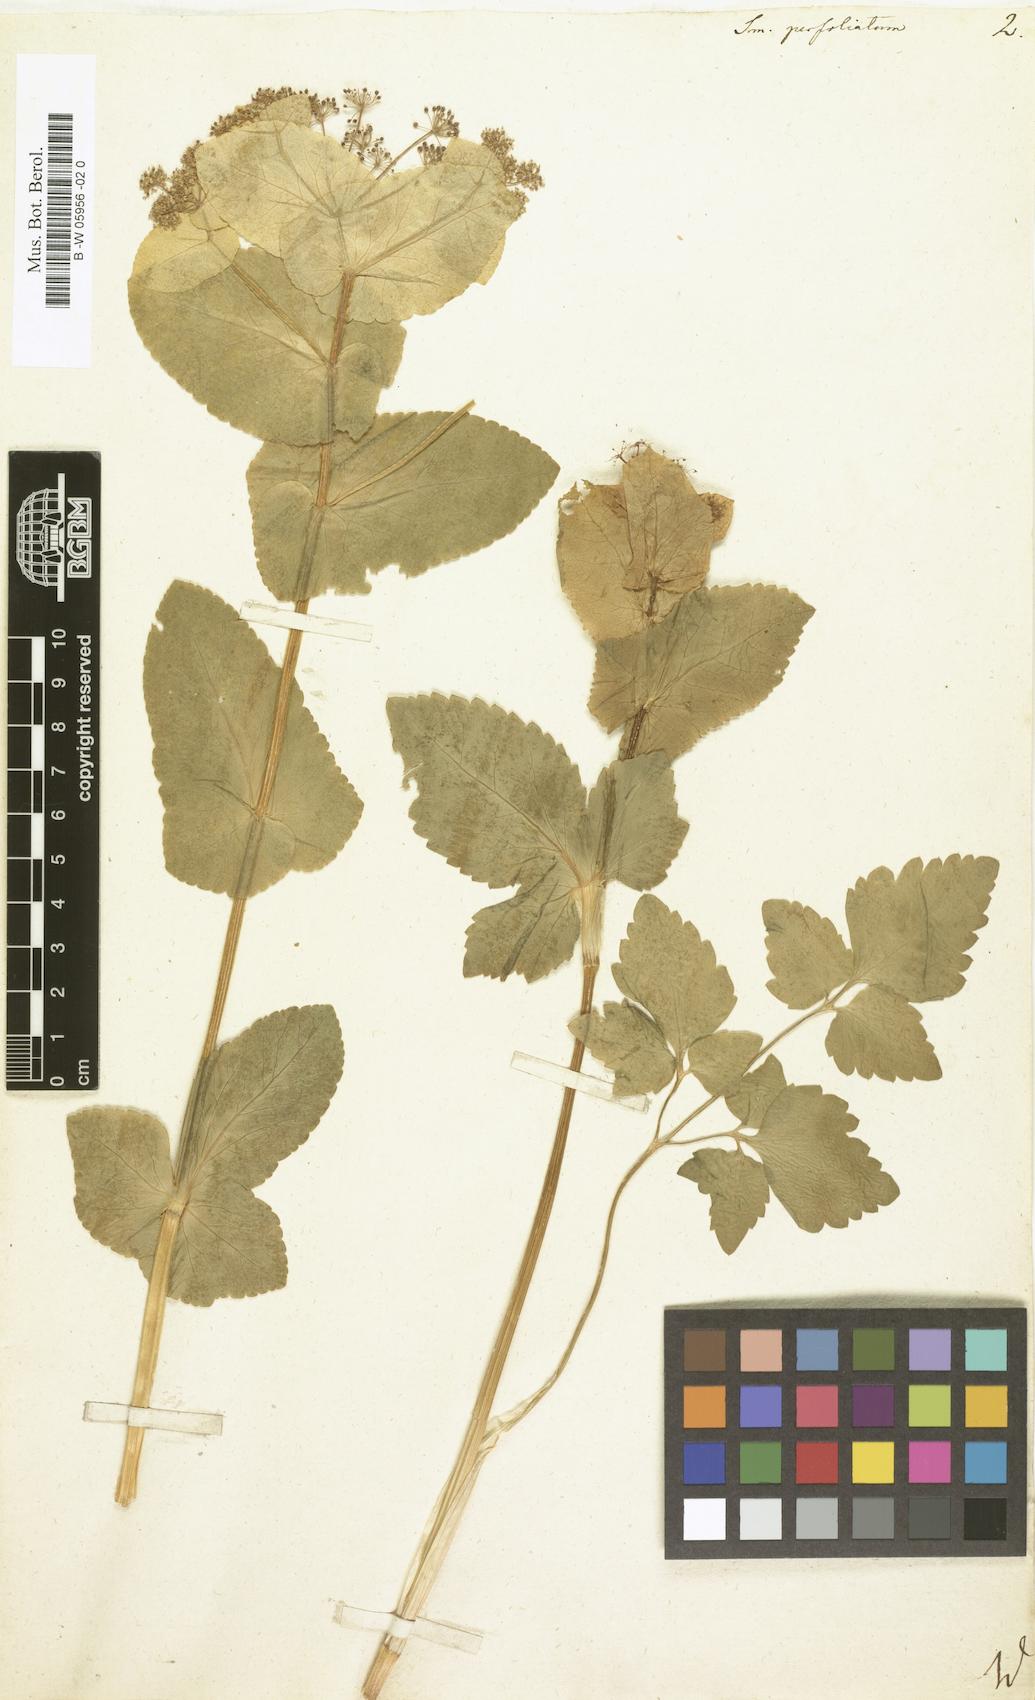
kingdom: Plantae
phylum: Tracheophyta
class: Magnoliopsida
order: Apiales
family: Apiaceae
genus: Smyrnium
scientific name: Smyrnium perfoliatum
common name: Perfoliate alexanders
